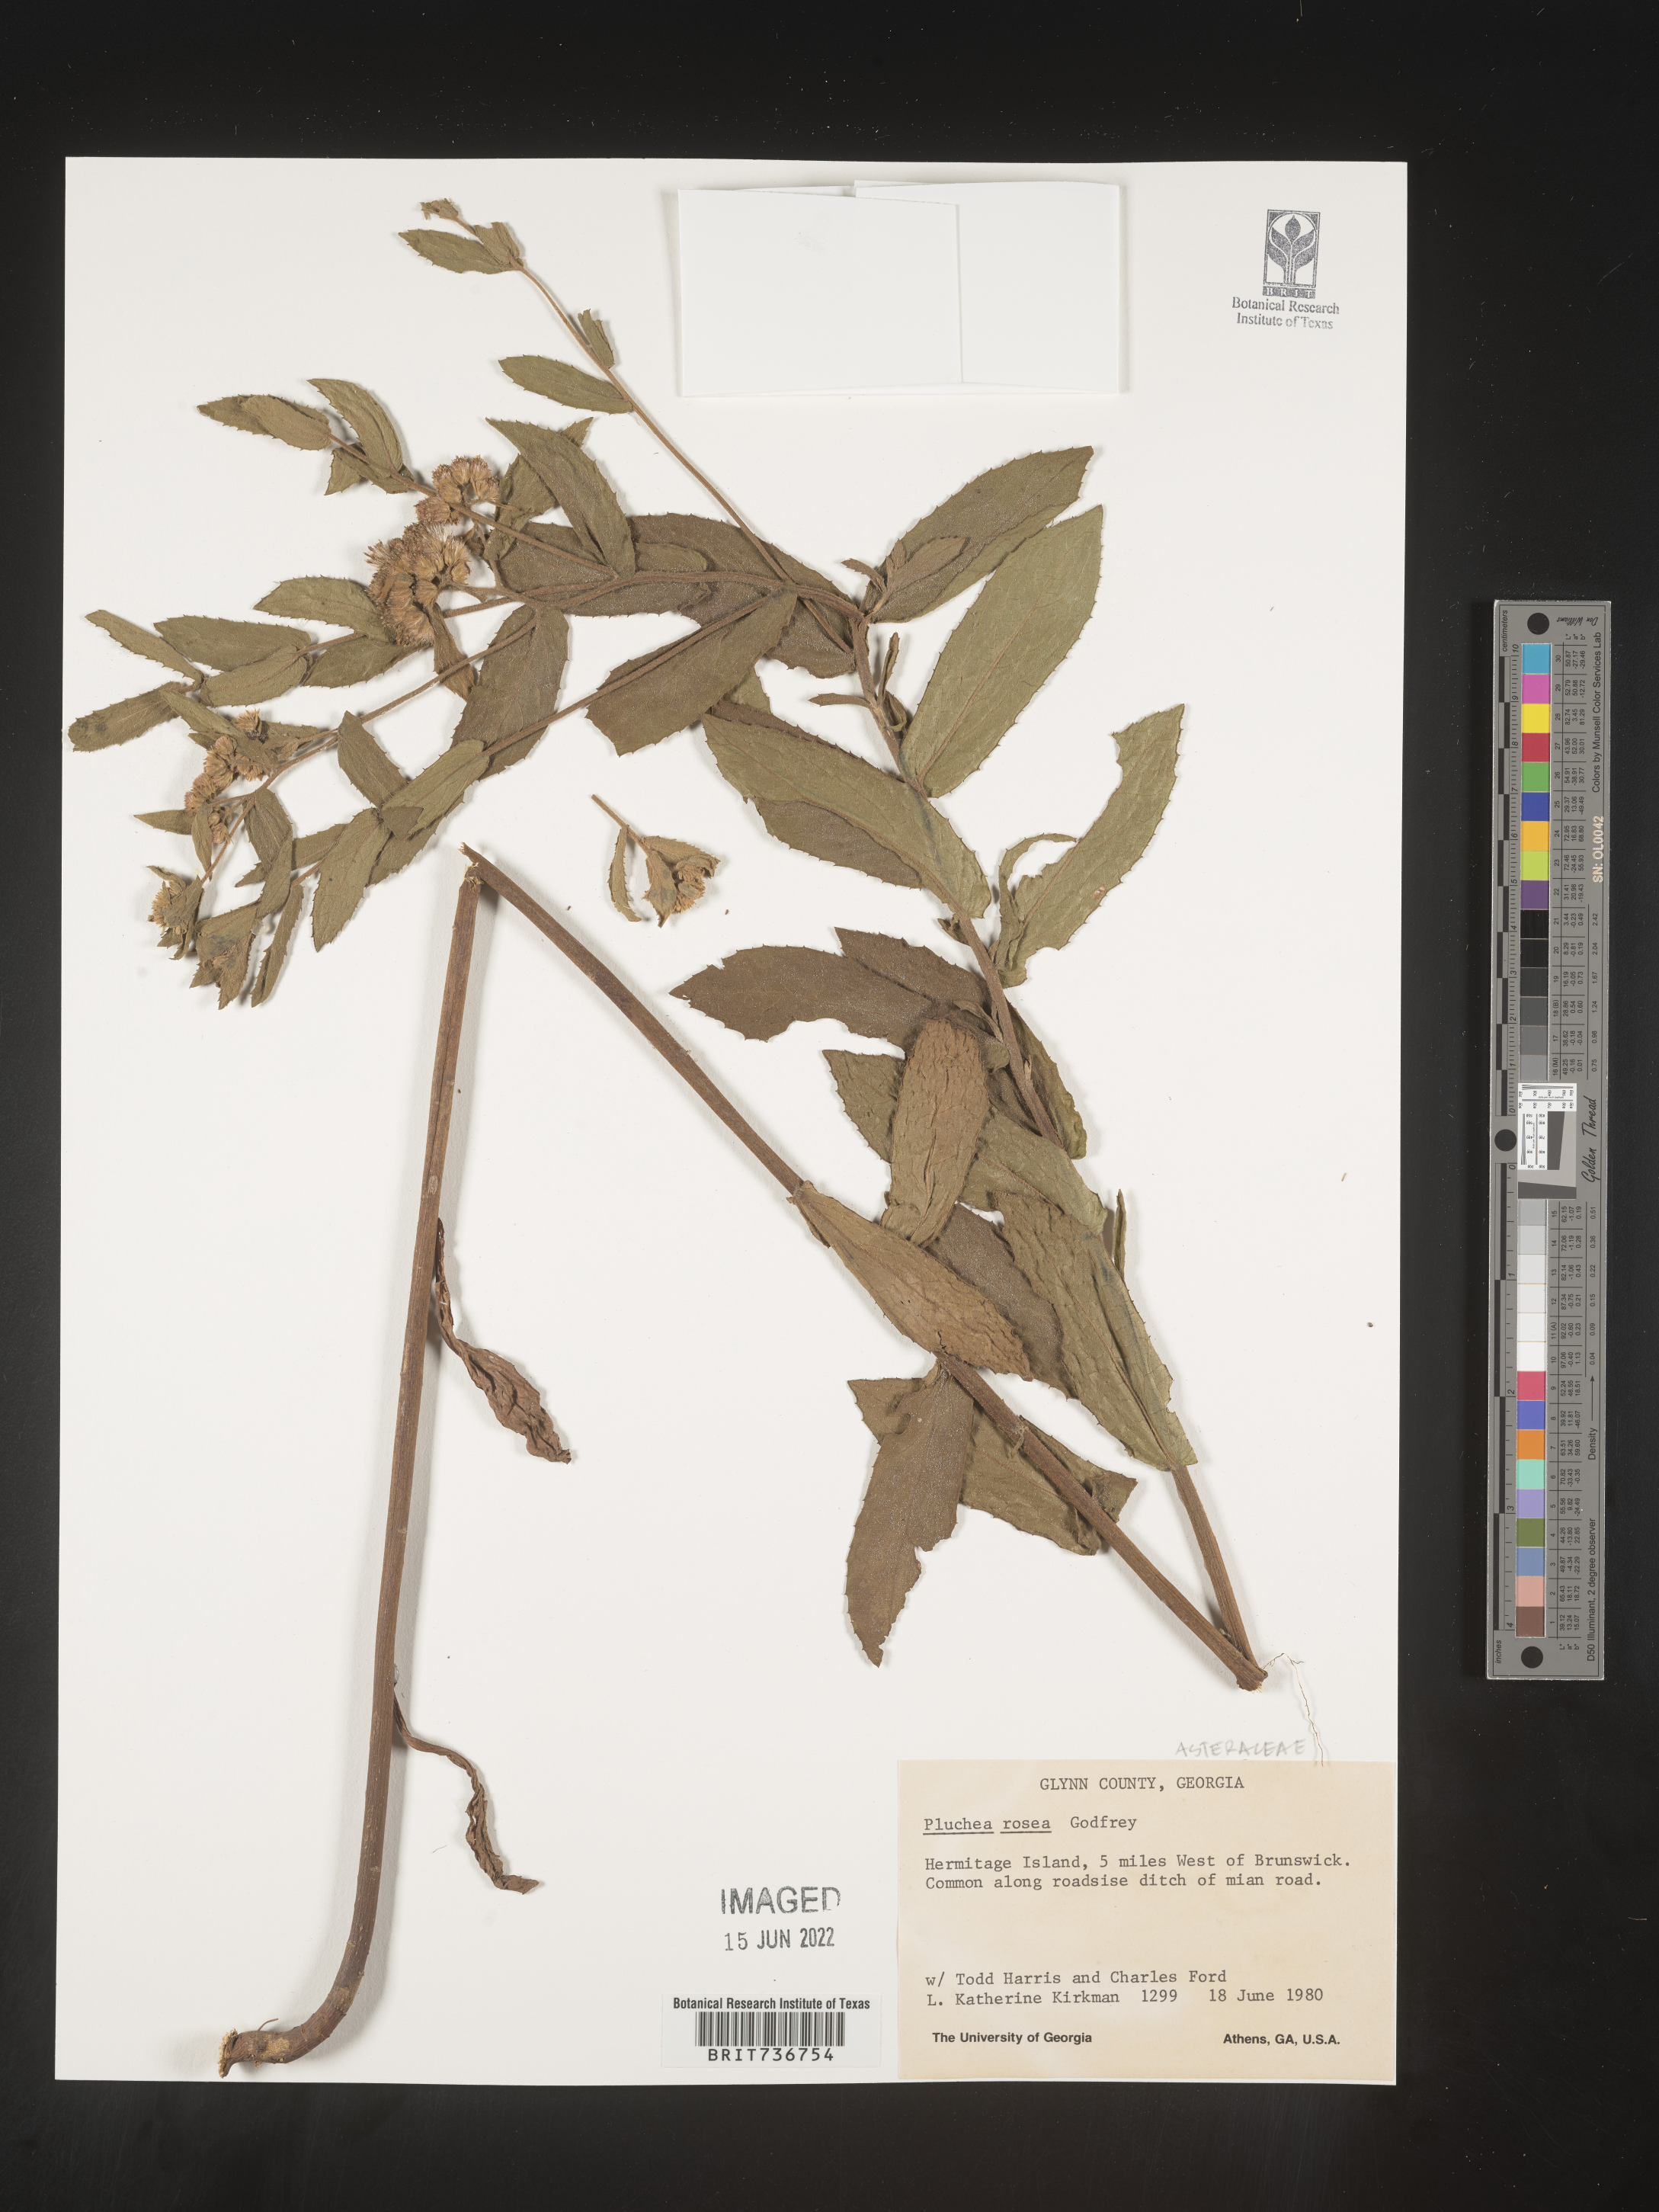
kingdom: Plantae
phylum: Tracheophyta
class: Magnoliopsida
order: Asterales
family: Asteraceae
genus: Pluchea
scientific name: Pluchea baccharis
